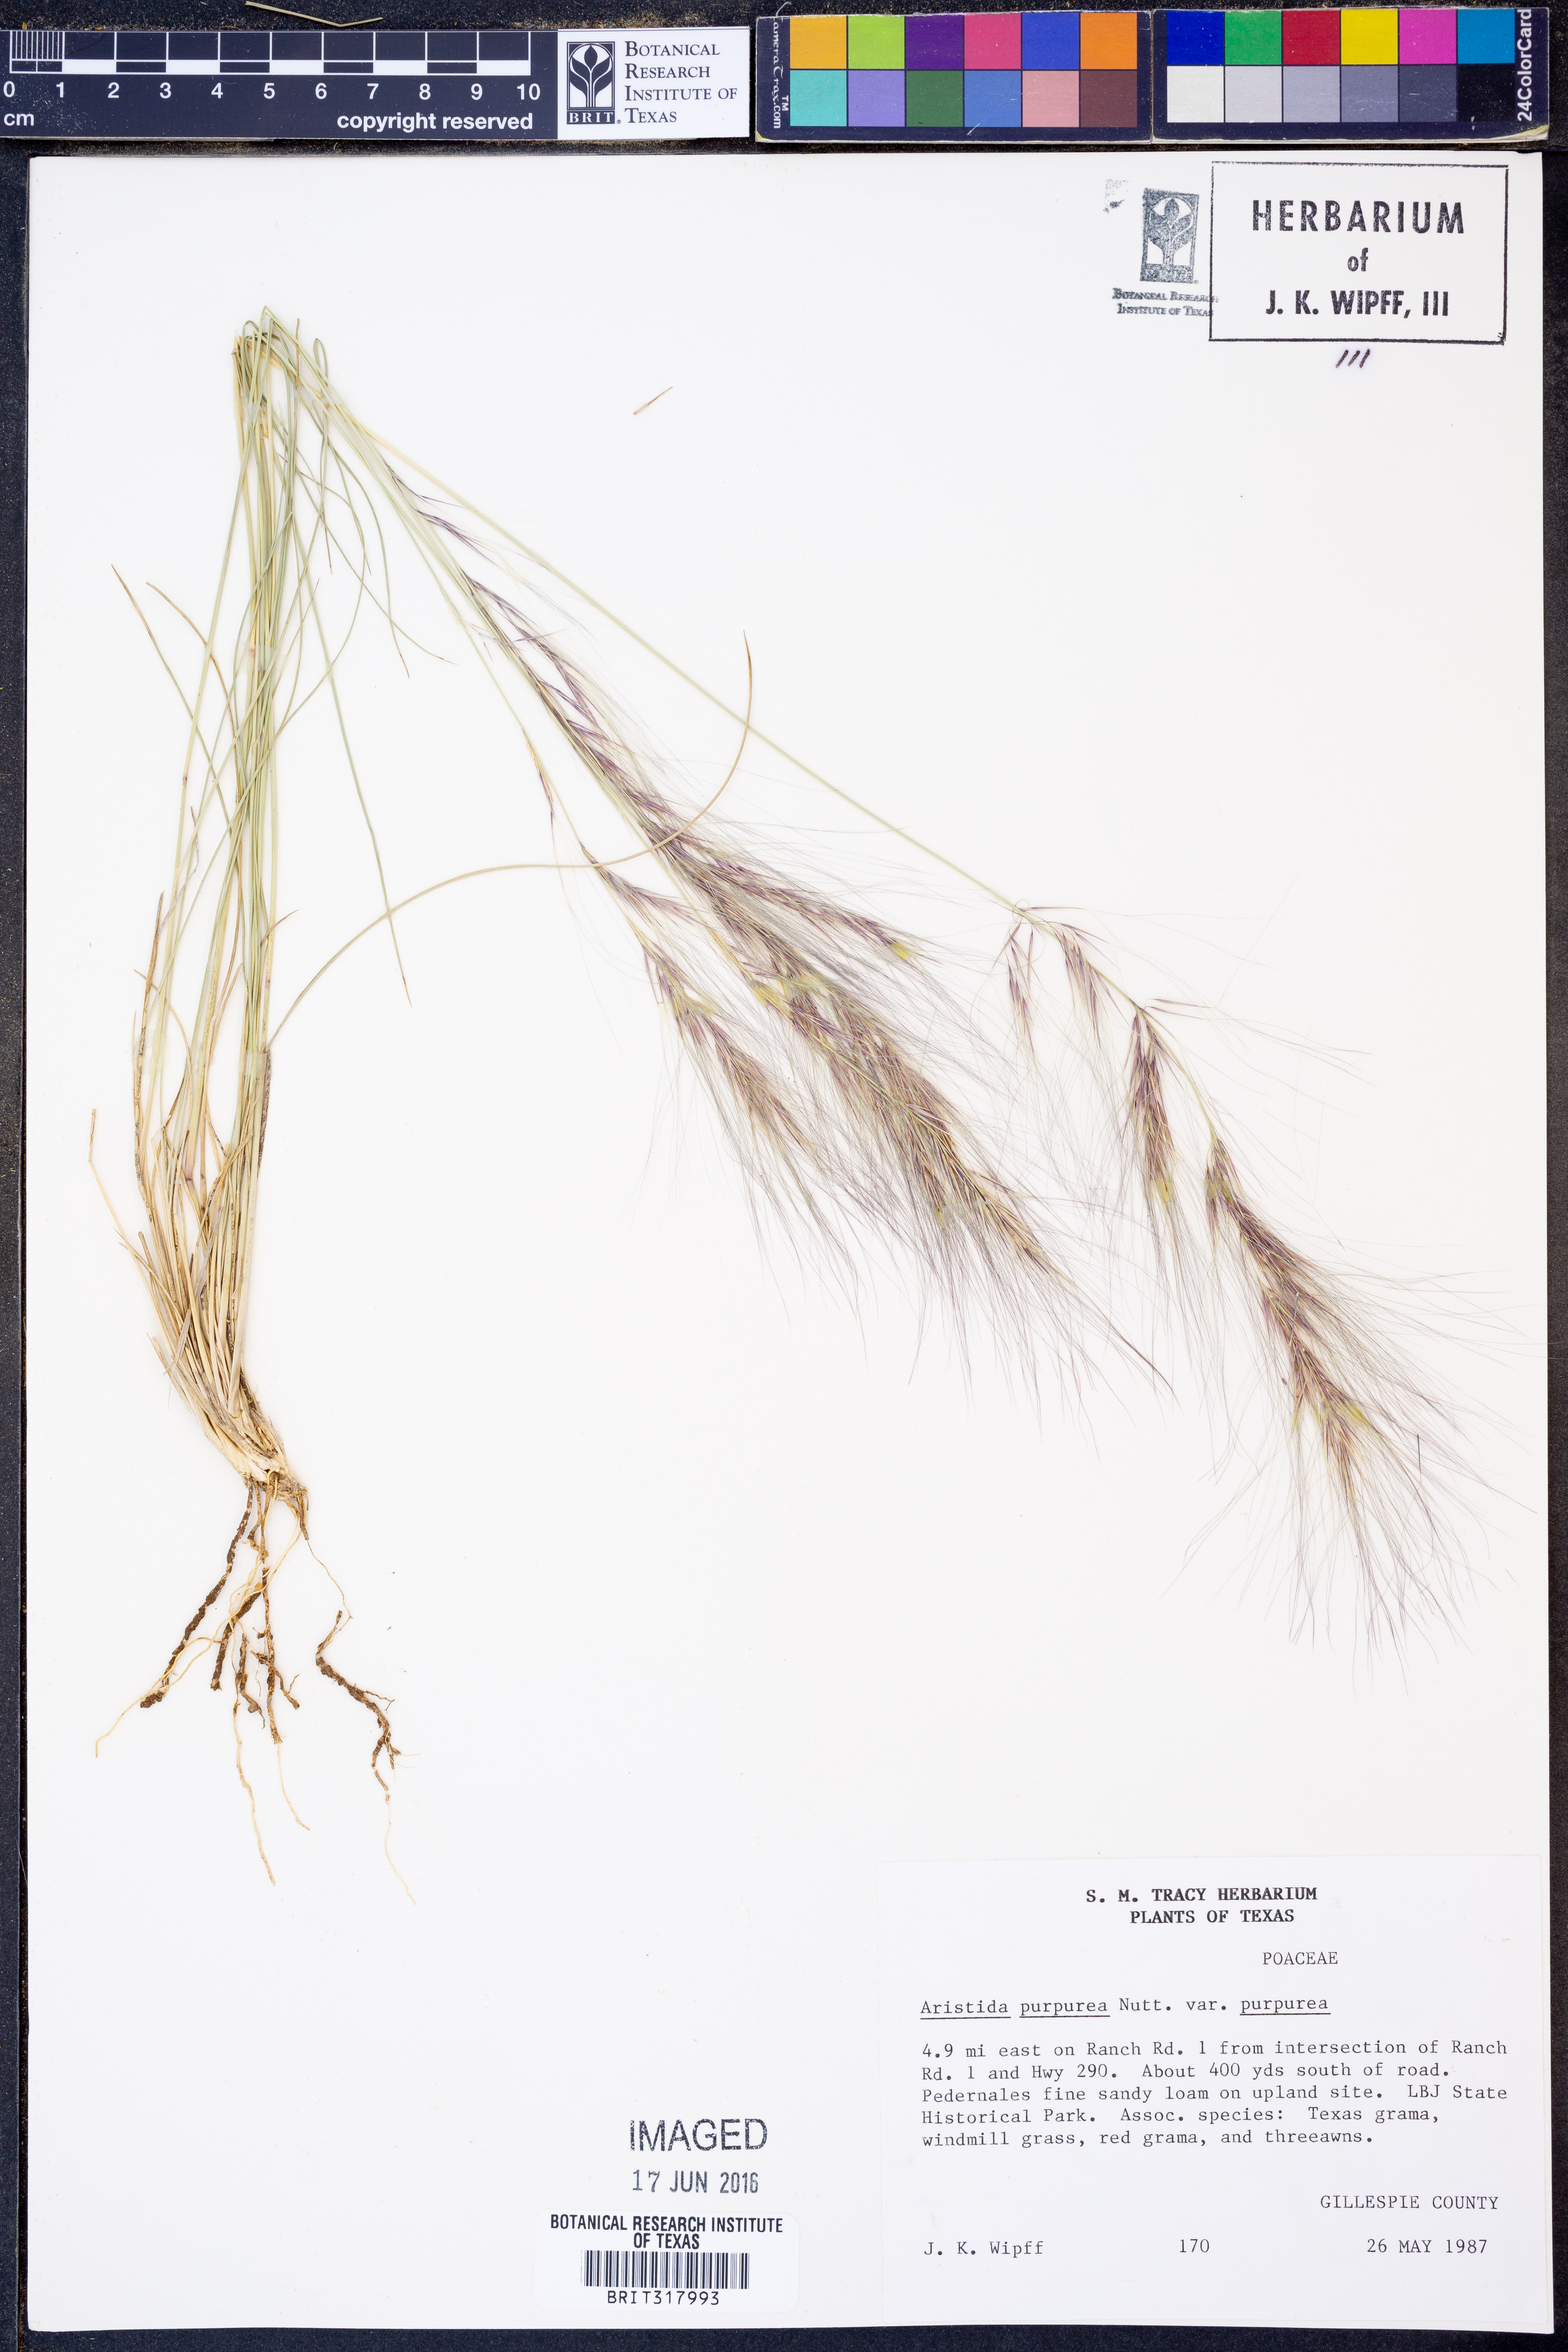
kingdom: Plantae
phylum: Tracheophyta
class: Liliopsida
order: Poales
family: Poaceae
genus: Aristida
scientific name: Aristida purpurea
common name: Purple threeawn
